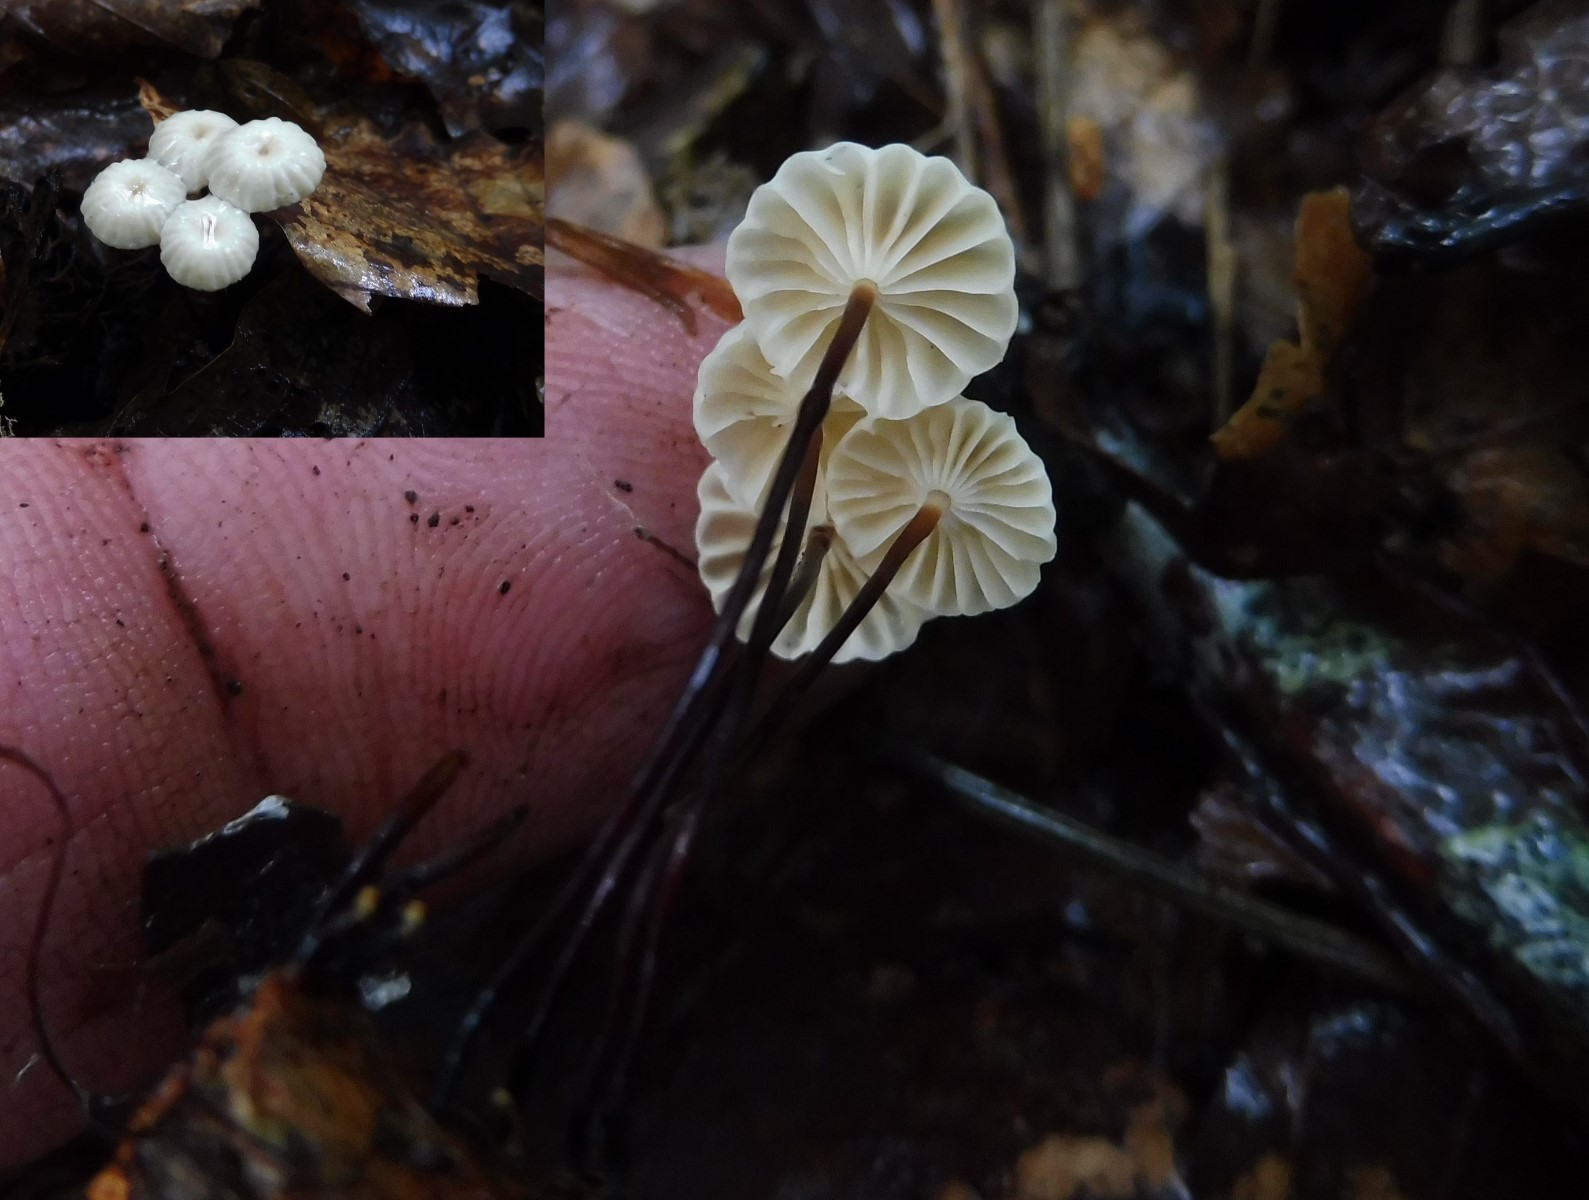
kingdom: Fungi
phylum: Basidiomycota
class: Agaricomycetes
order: Agaricales
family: Marasmiaceae
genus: Marasmius
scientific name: Marasmius rotula
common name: hjul-bruskhat
